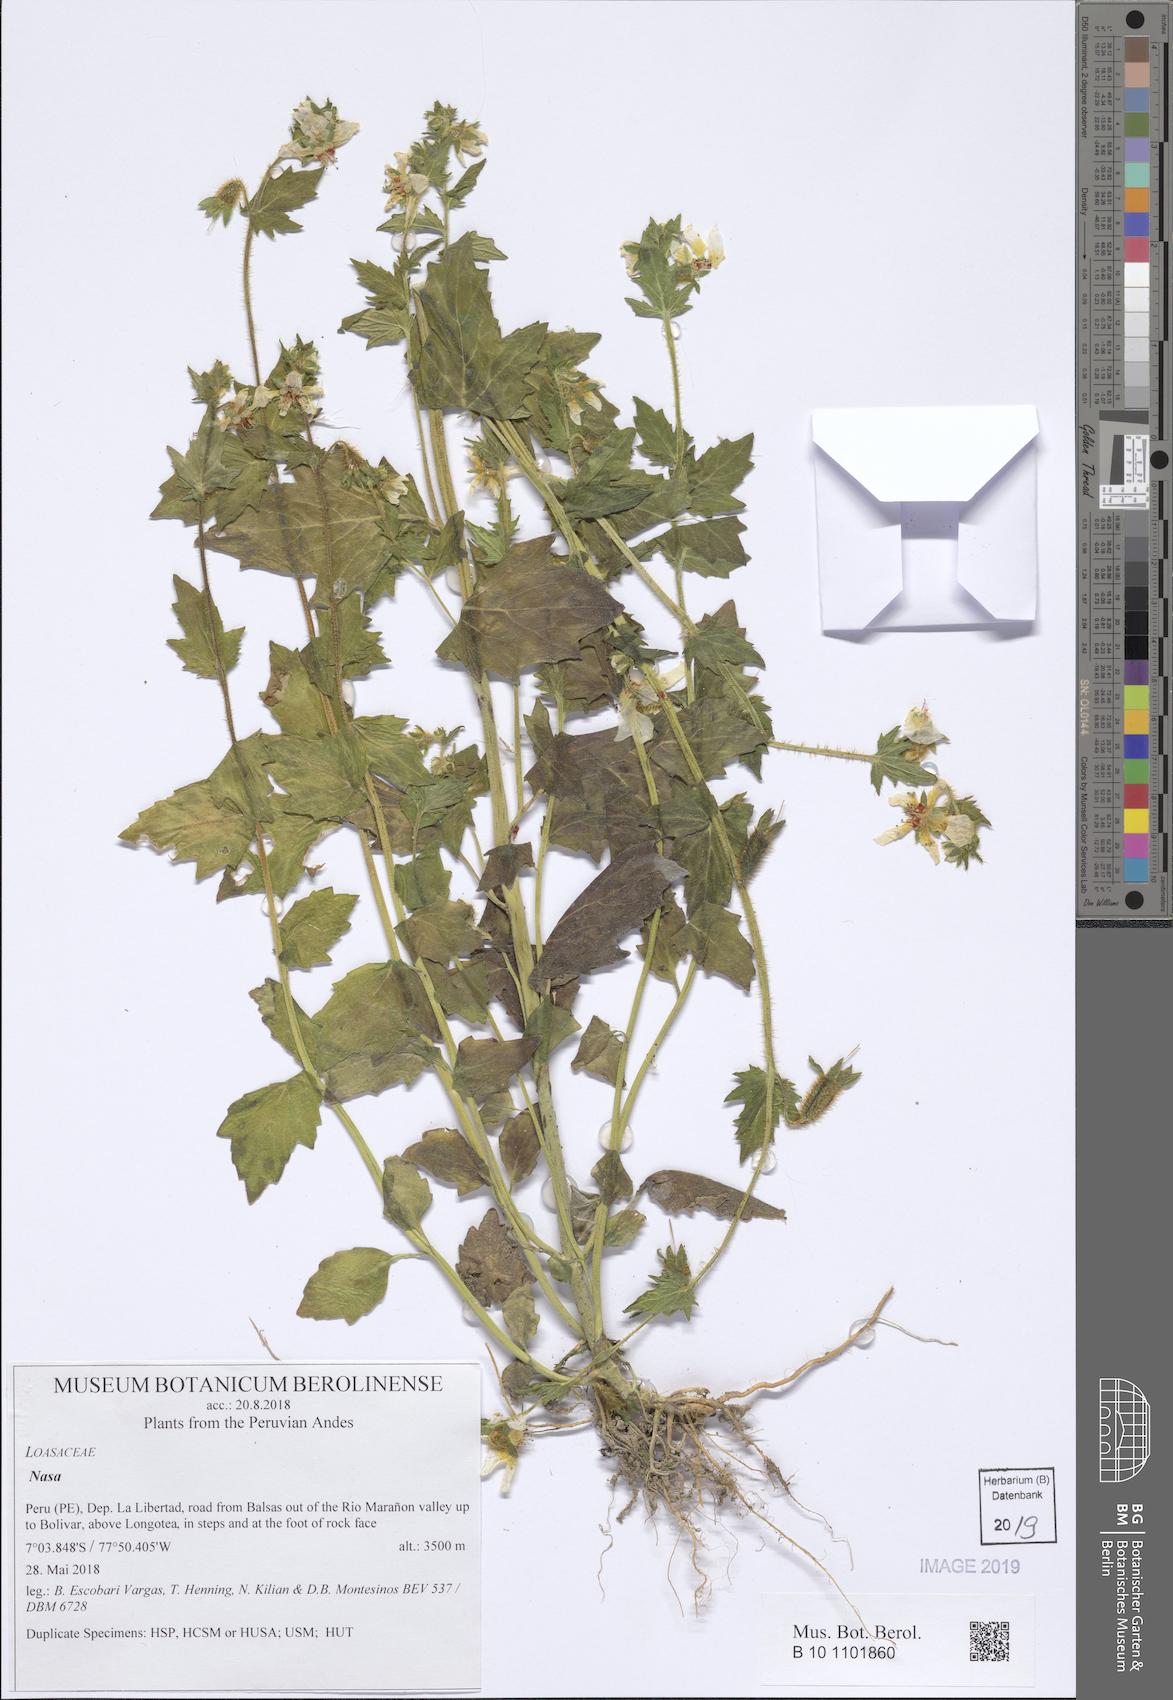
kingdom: Plantae
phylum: Tracheophyta
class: Magnoliopsida
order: Cornales
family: Loasaceae
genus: Nasa
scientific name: Nasa picta
